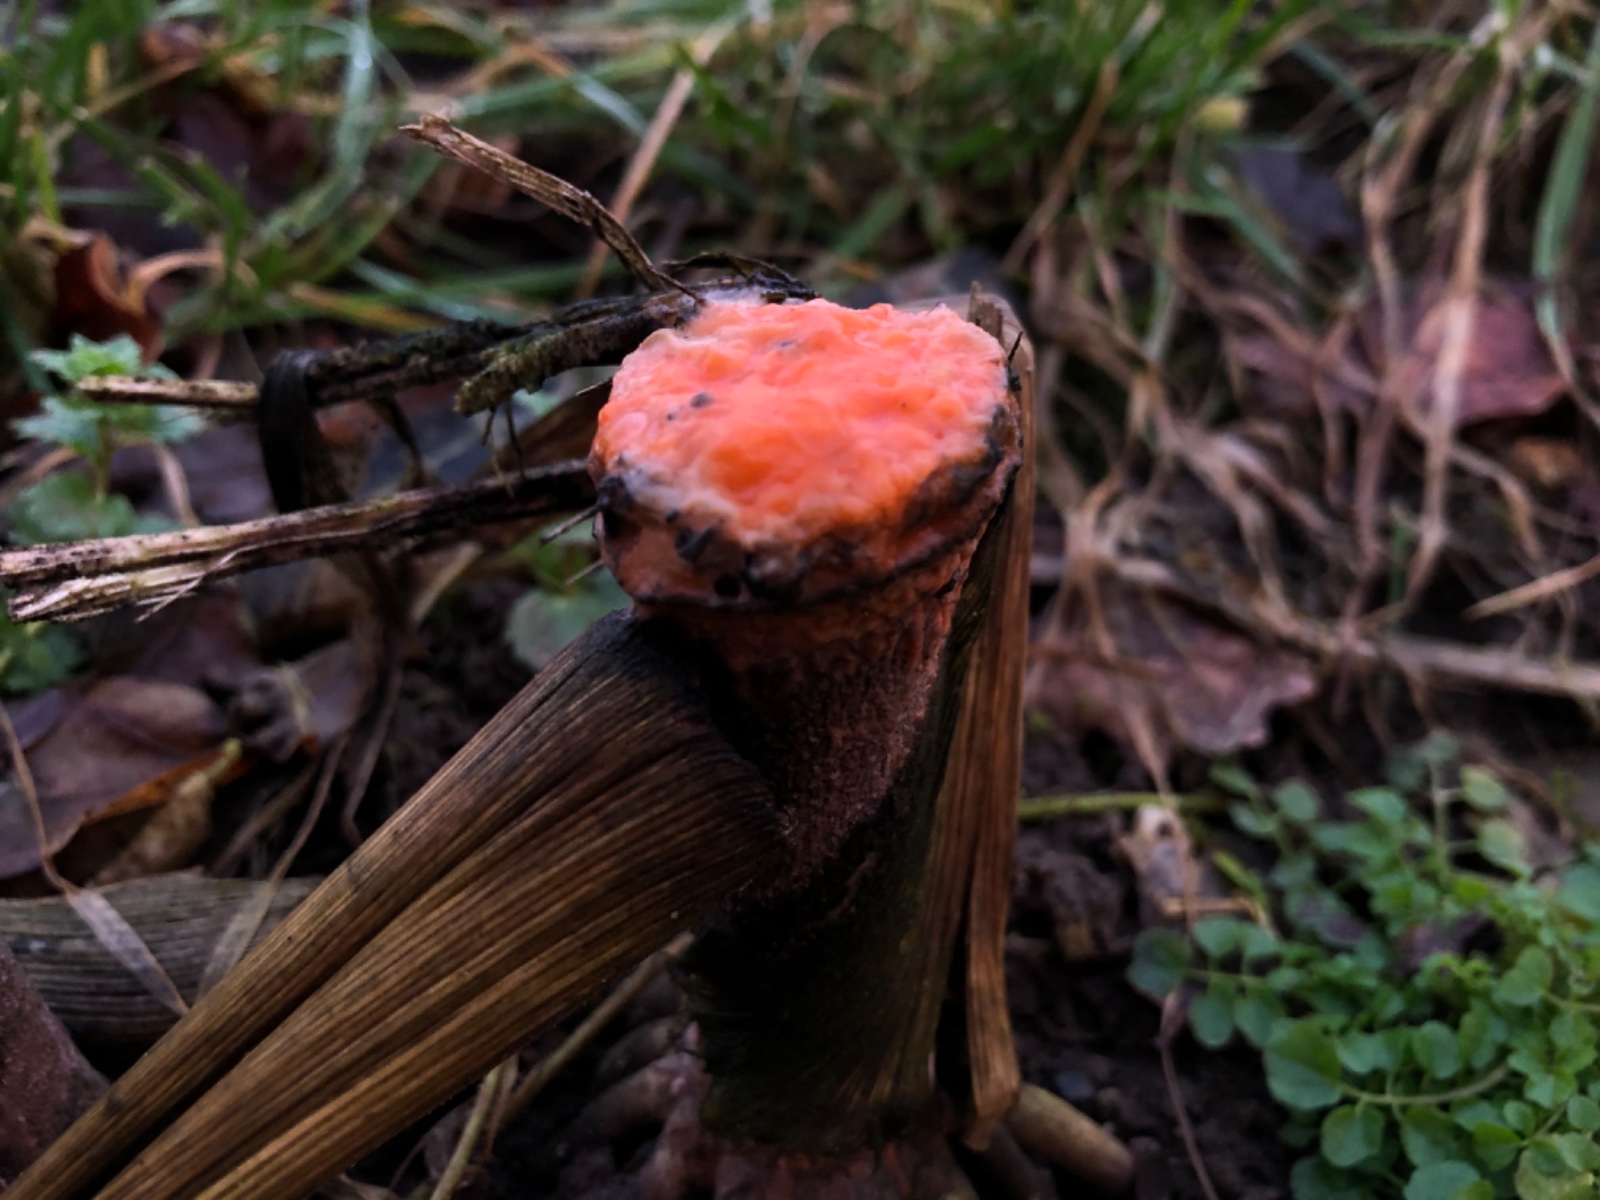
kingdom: Fungi
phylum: Ascomycota
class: Sordariomycetes
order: Hypocreales
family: Nectriaceae
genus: Fusarium
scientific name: Fusarium
